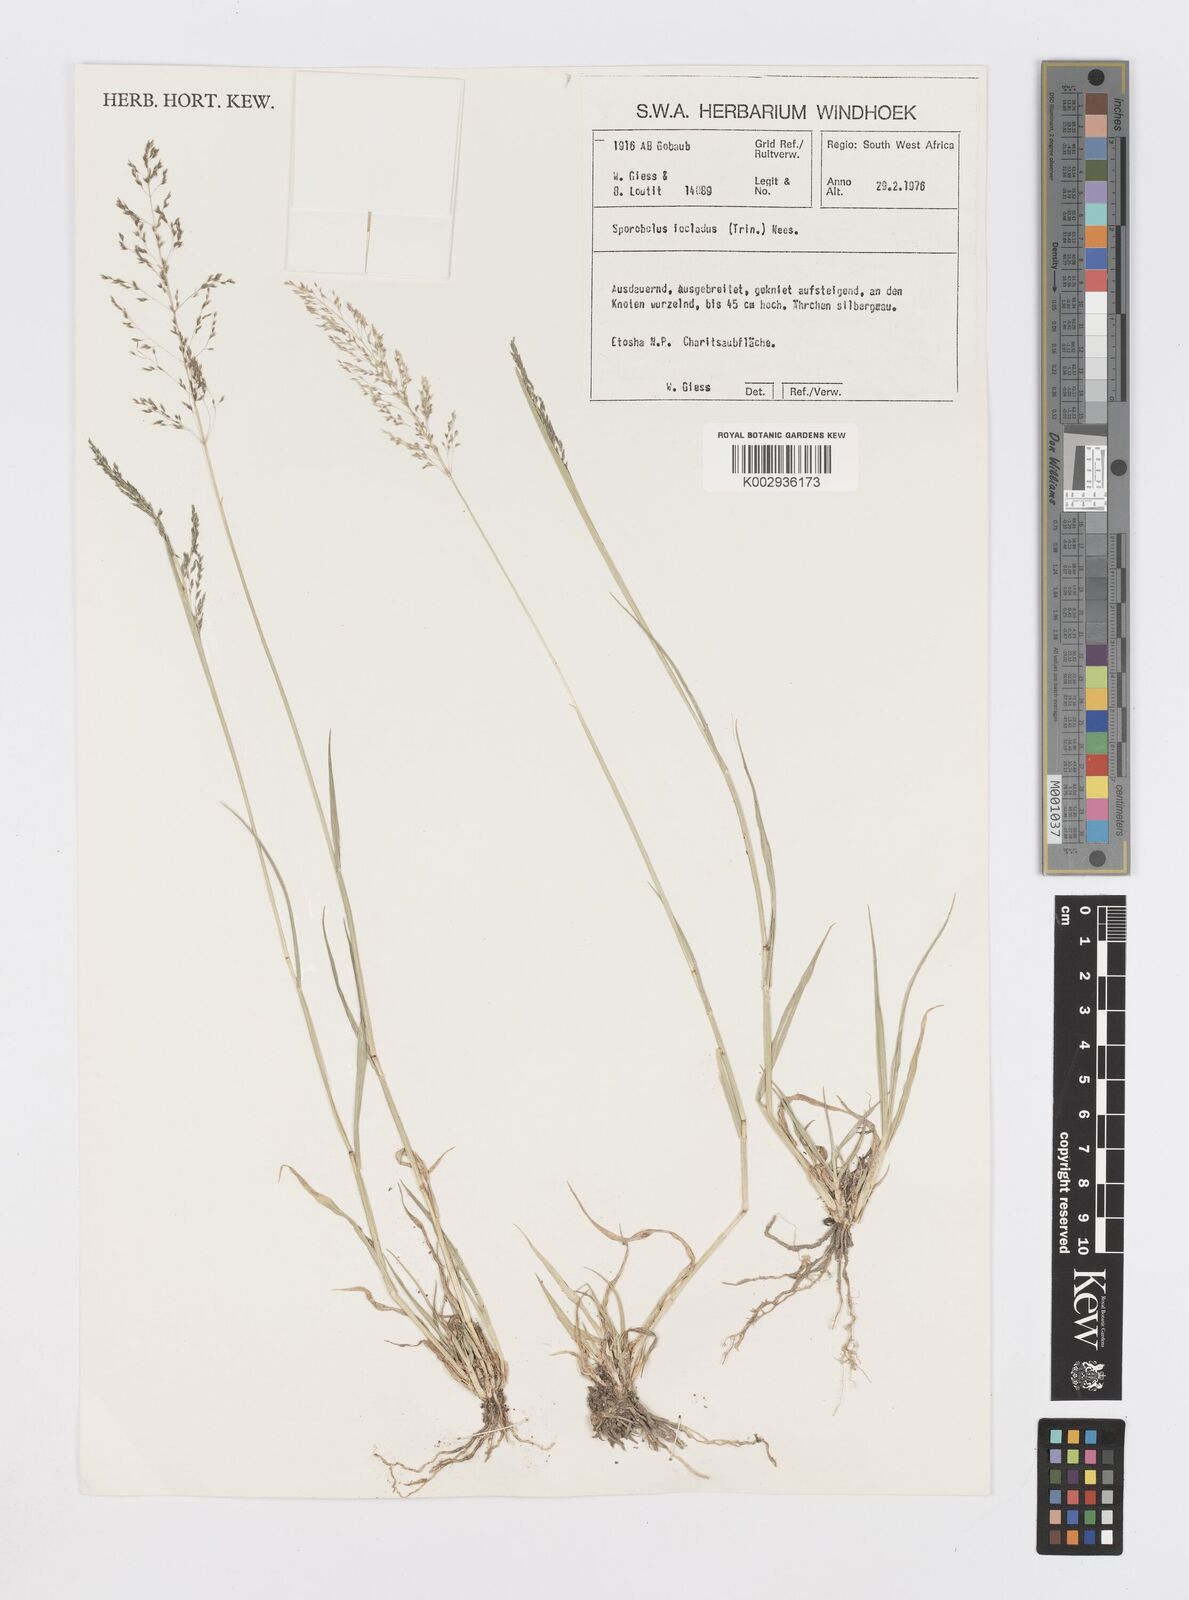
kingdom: Plantae
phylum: Tracheophyta
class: Liliopsida
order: Poales
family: Poaceae
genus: Sporobolus
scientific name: Sporobolus ioclados
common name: Pan dropseed
